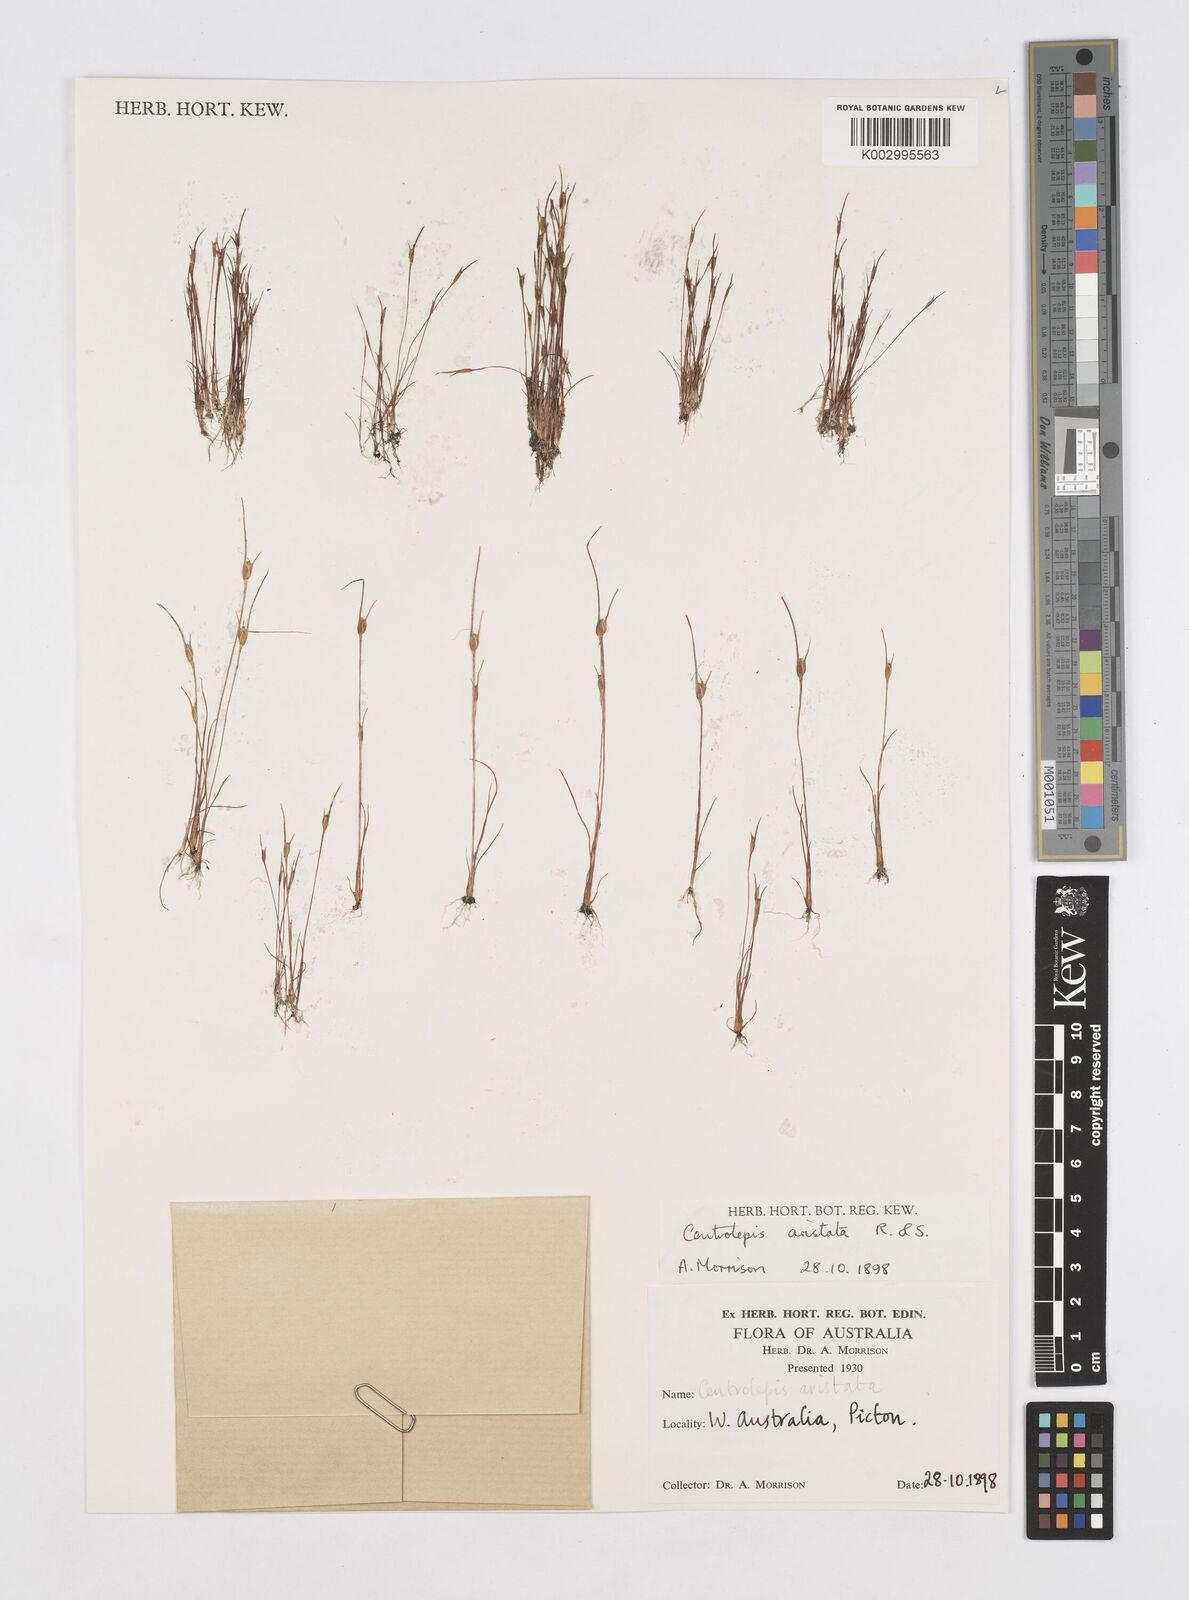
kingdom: Plantae
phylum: Tracheophyta
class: Liliopsida
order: Poales
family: Restionaceae
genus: Centrolepis
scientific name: Centrolepis aristata
